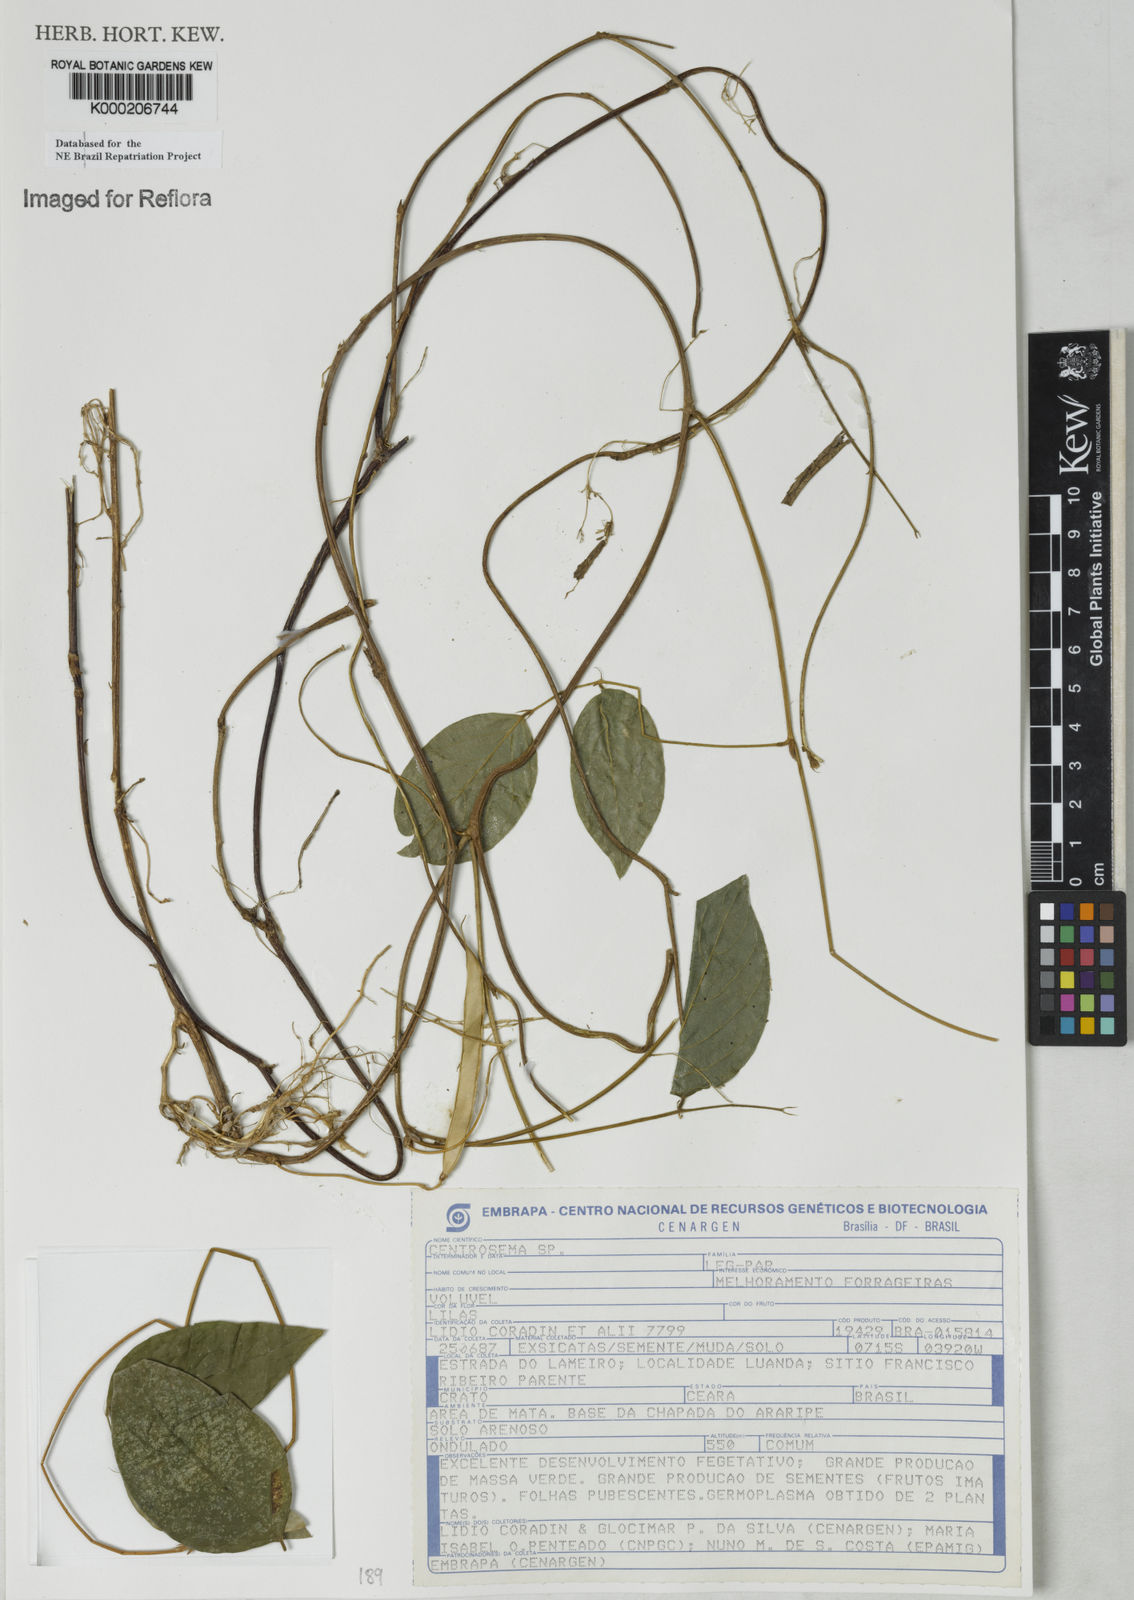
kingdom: Plantae
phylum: Tracheophyta
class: Magnoliopsida
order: Fabales
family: Fabaceae
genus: Centrosema
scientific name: Centrosema
